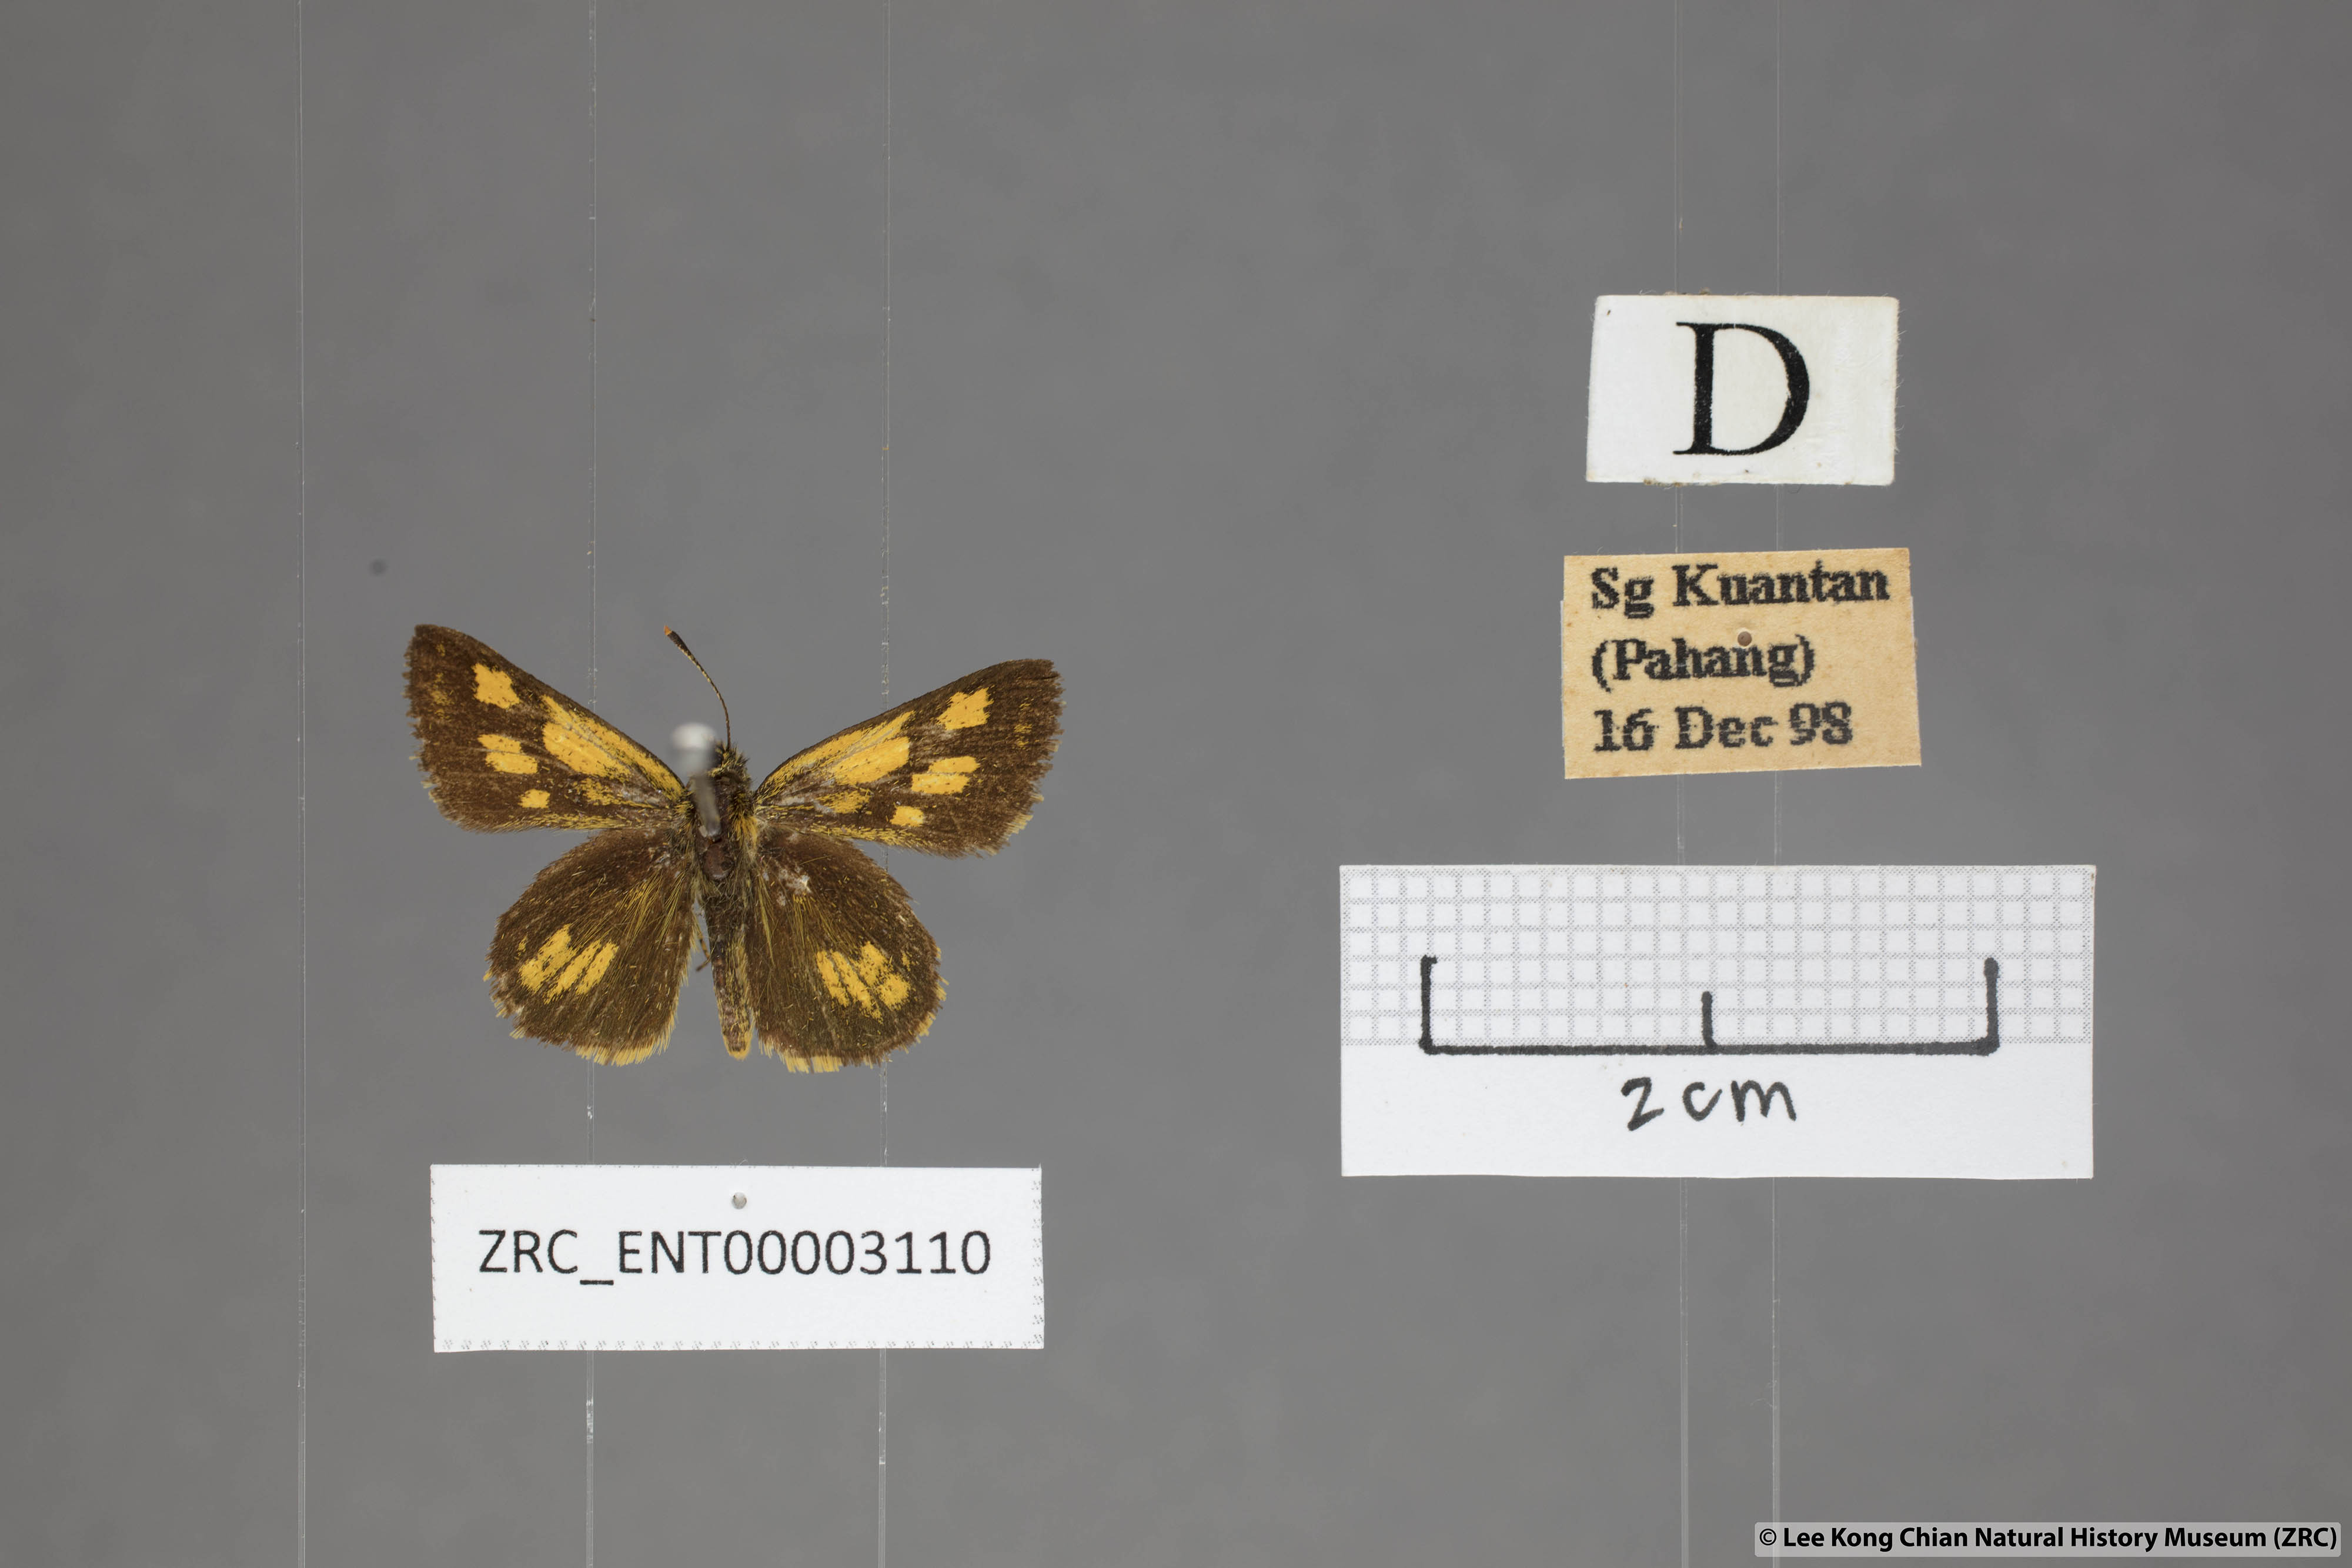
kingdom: Animalia
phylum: Arthropoda
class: Insecta
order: Lepidoptera
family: Hesperiidae
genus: Ampittia
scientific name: Ampittia dioscorides
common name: Common bush hopper
